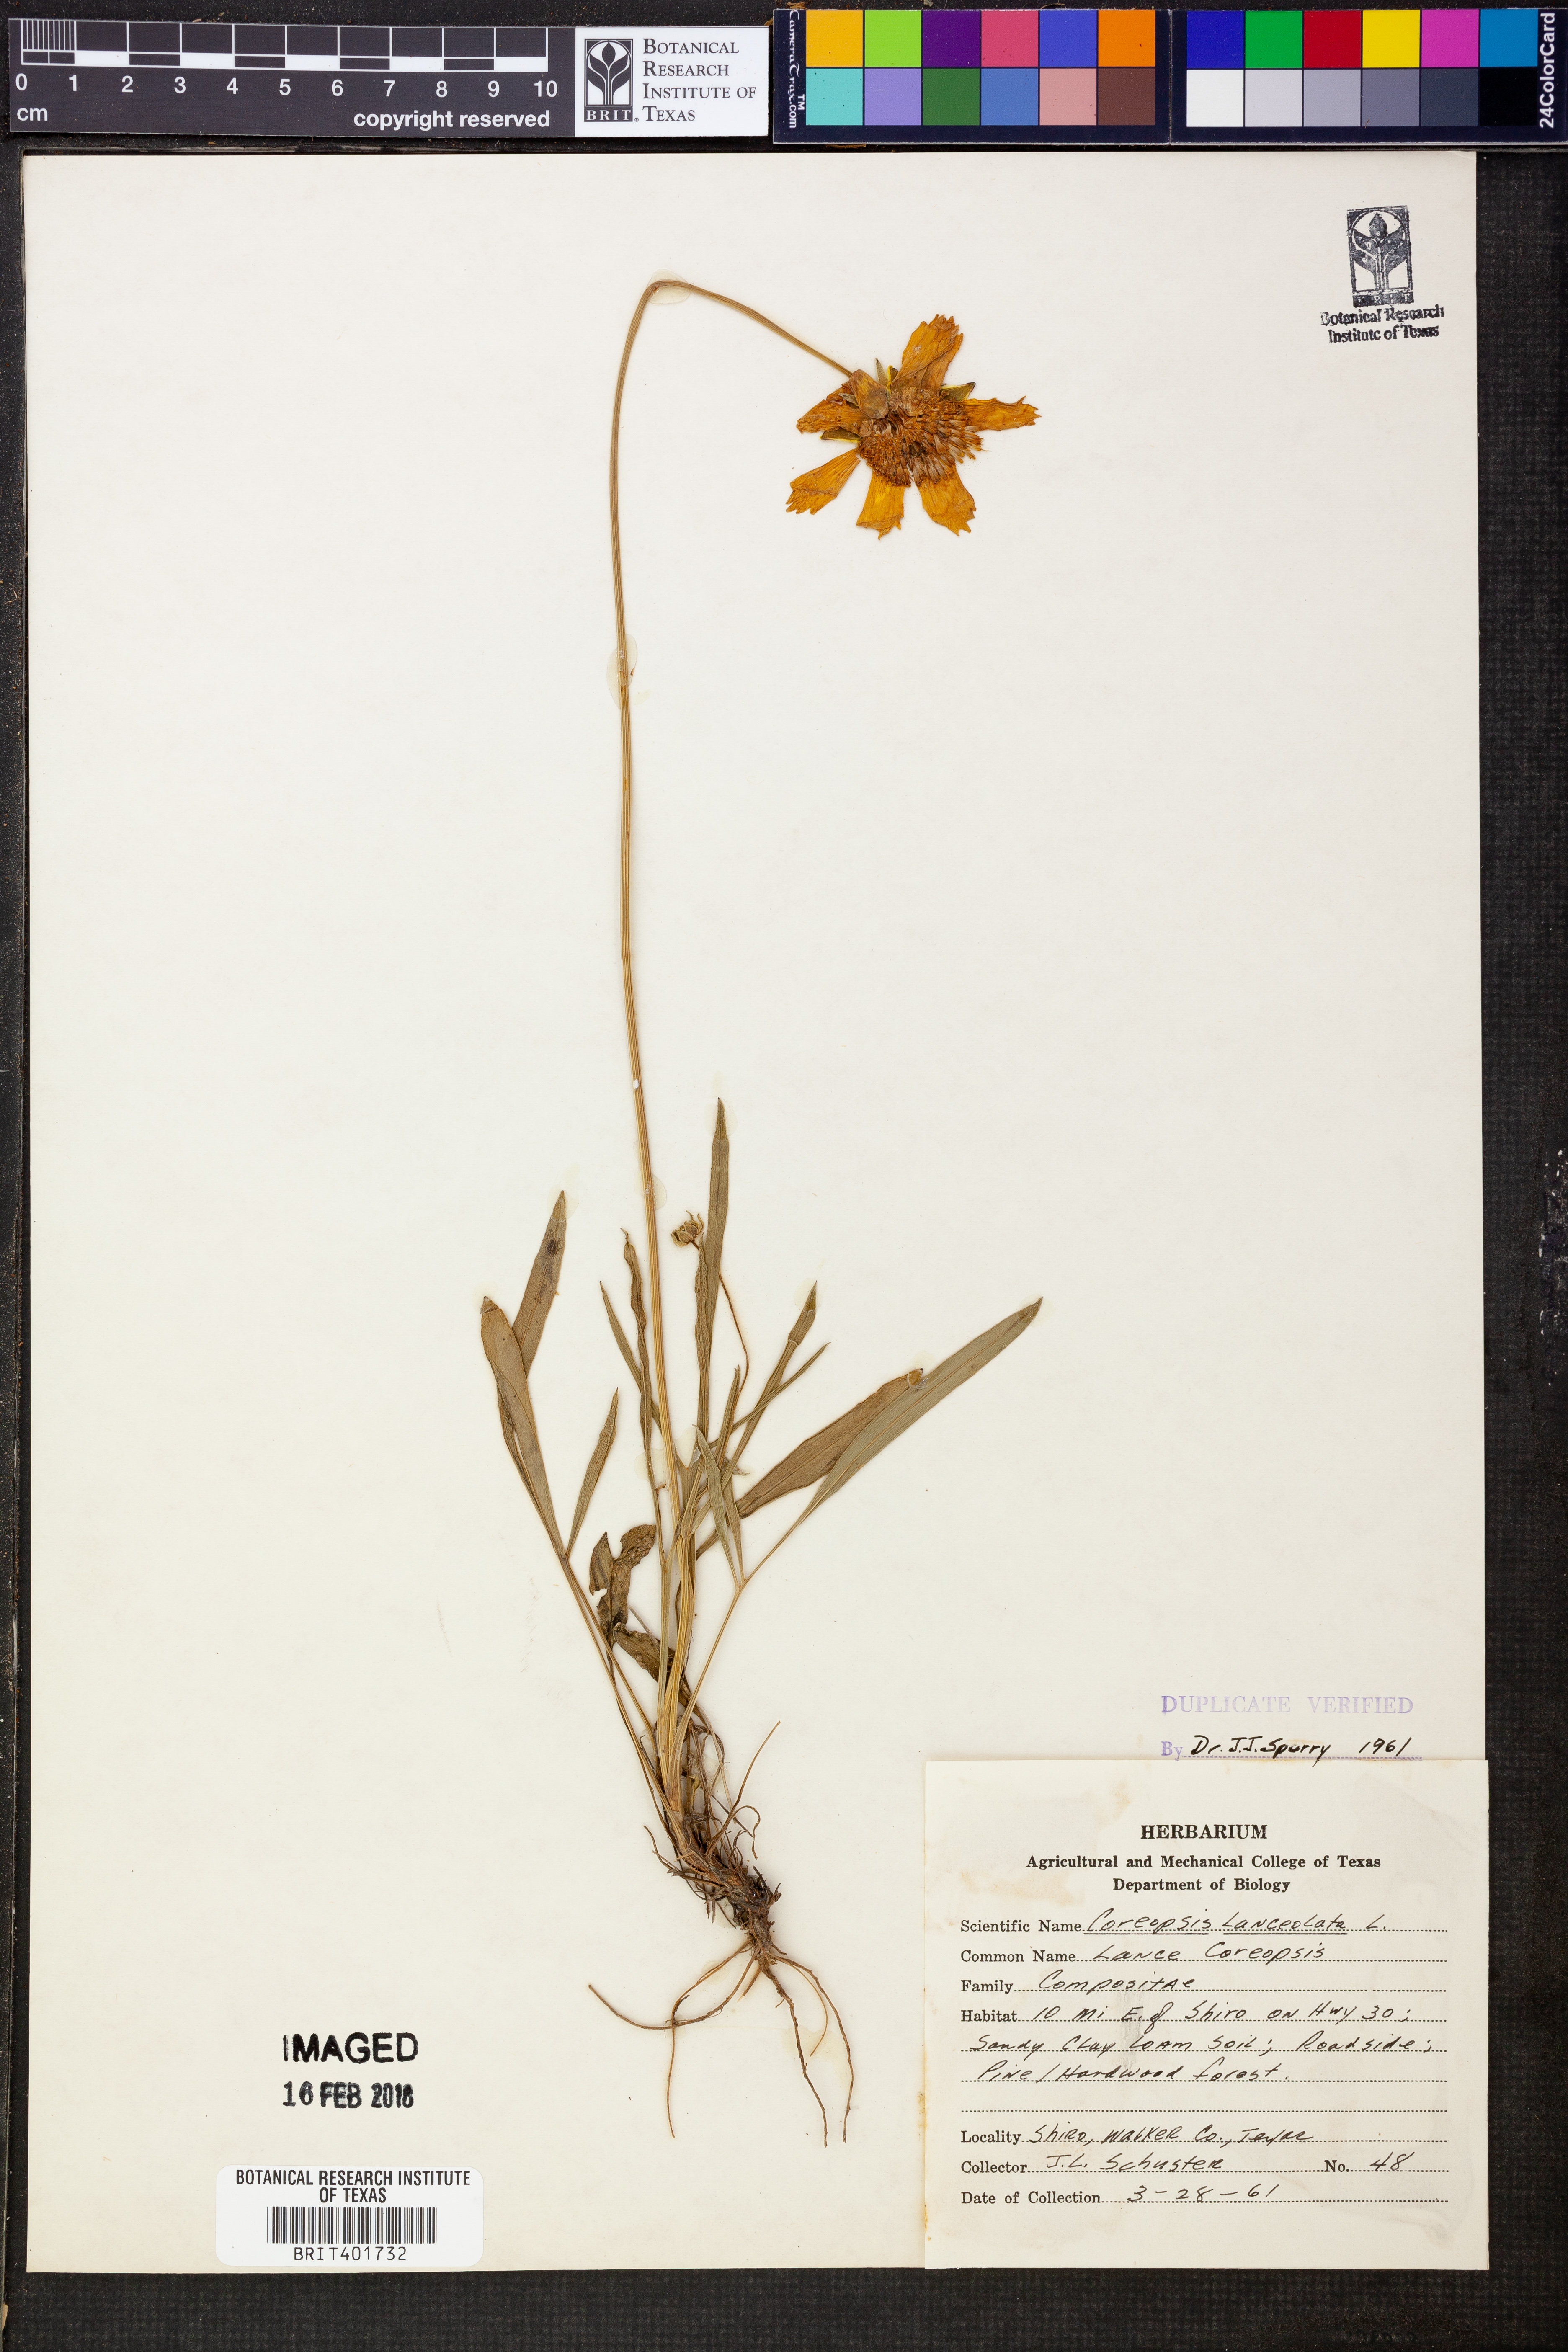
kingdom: Plantae
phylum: Tracheophyta
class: Magnoliopsida
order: Asterales
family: Asteraceae
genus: Coreopsis
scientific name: Coreopsis lanceolata
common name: Garden coreopsis
